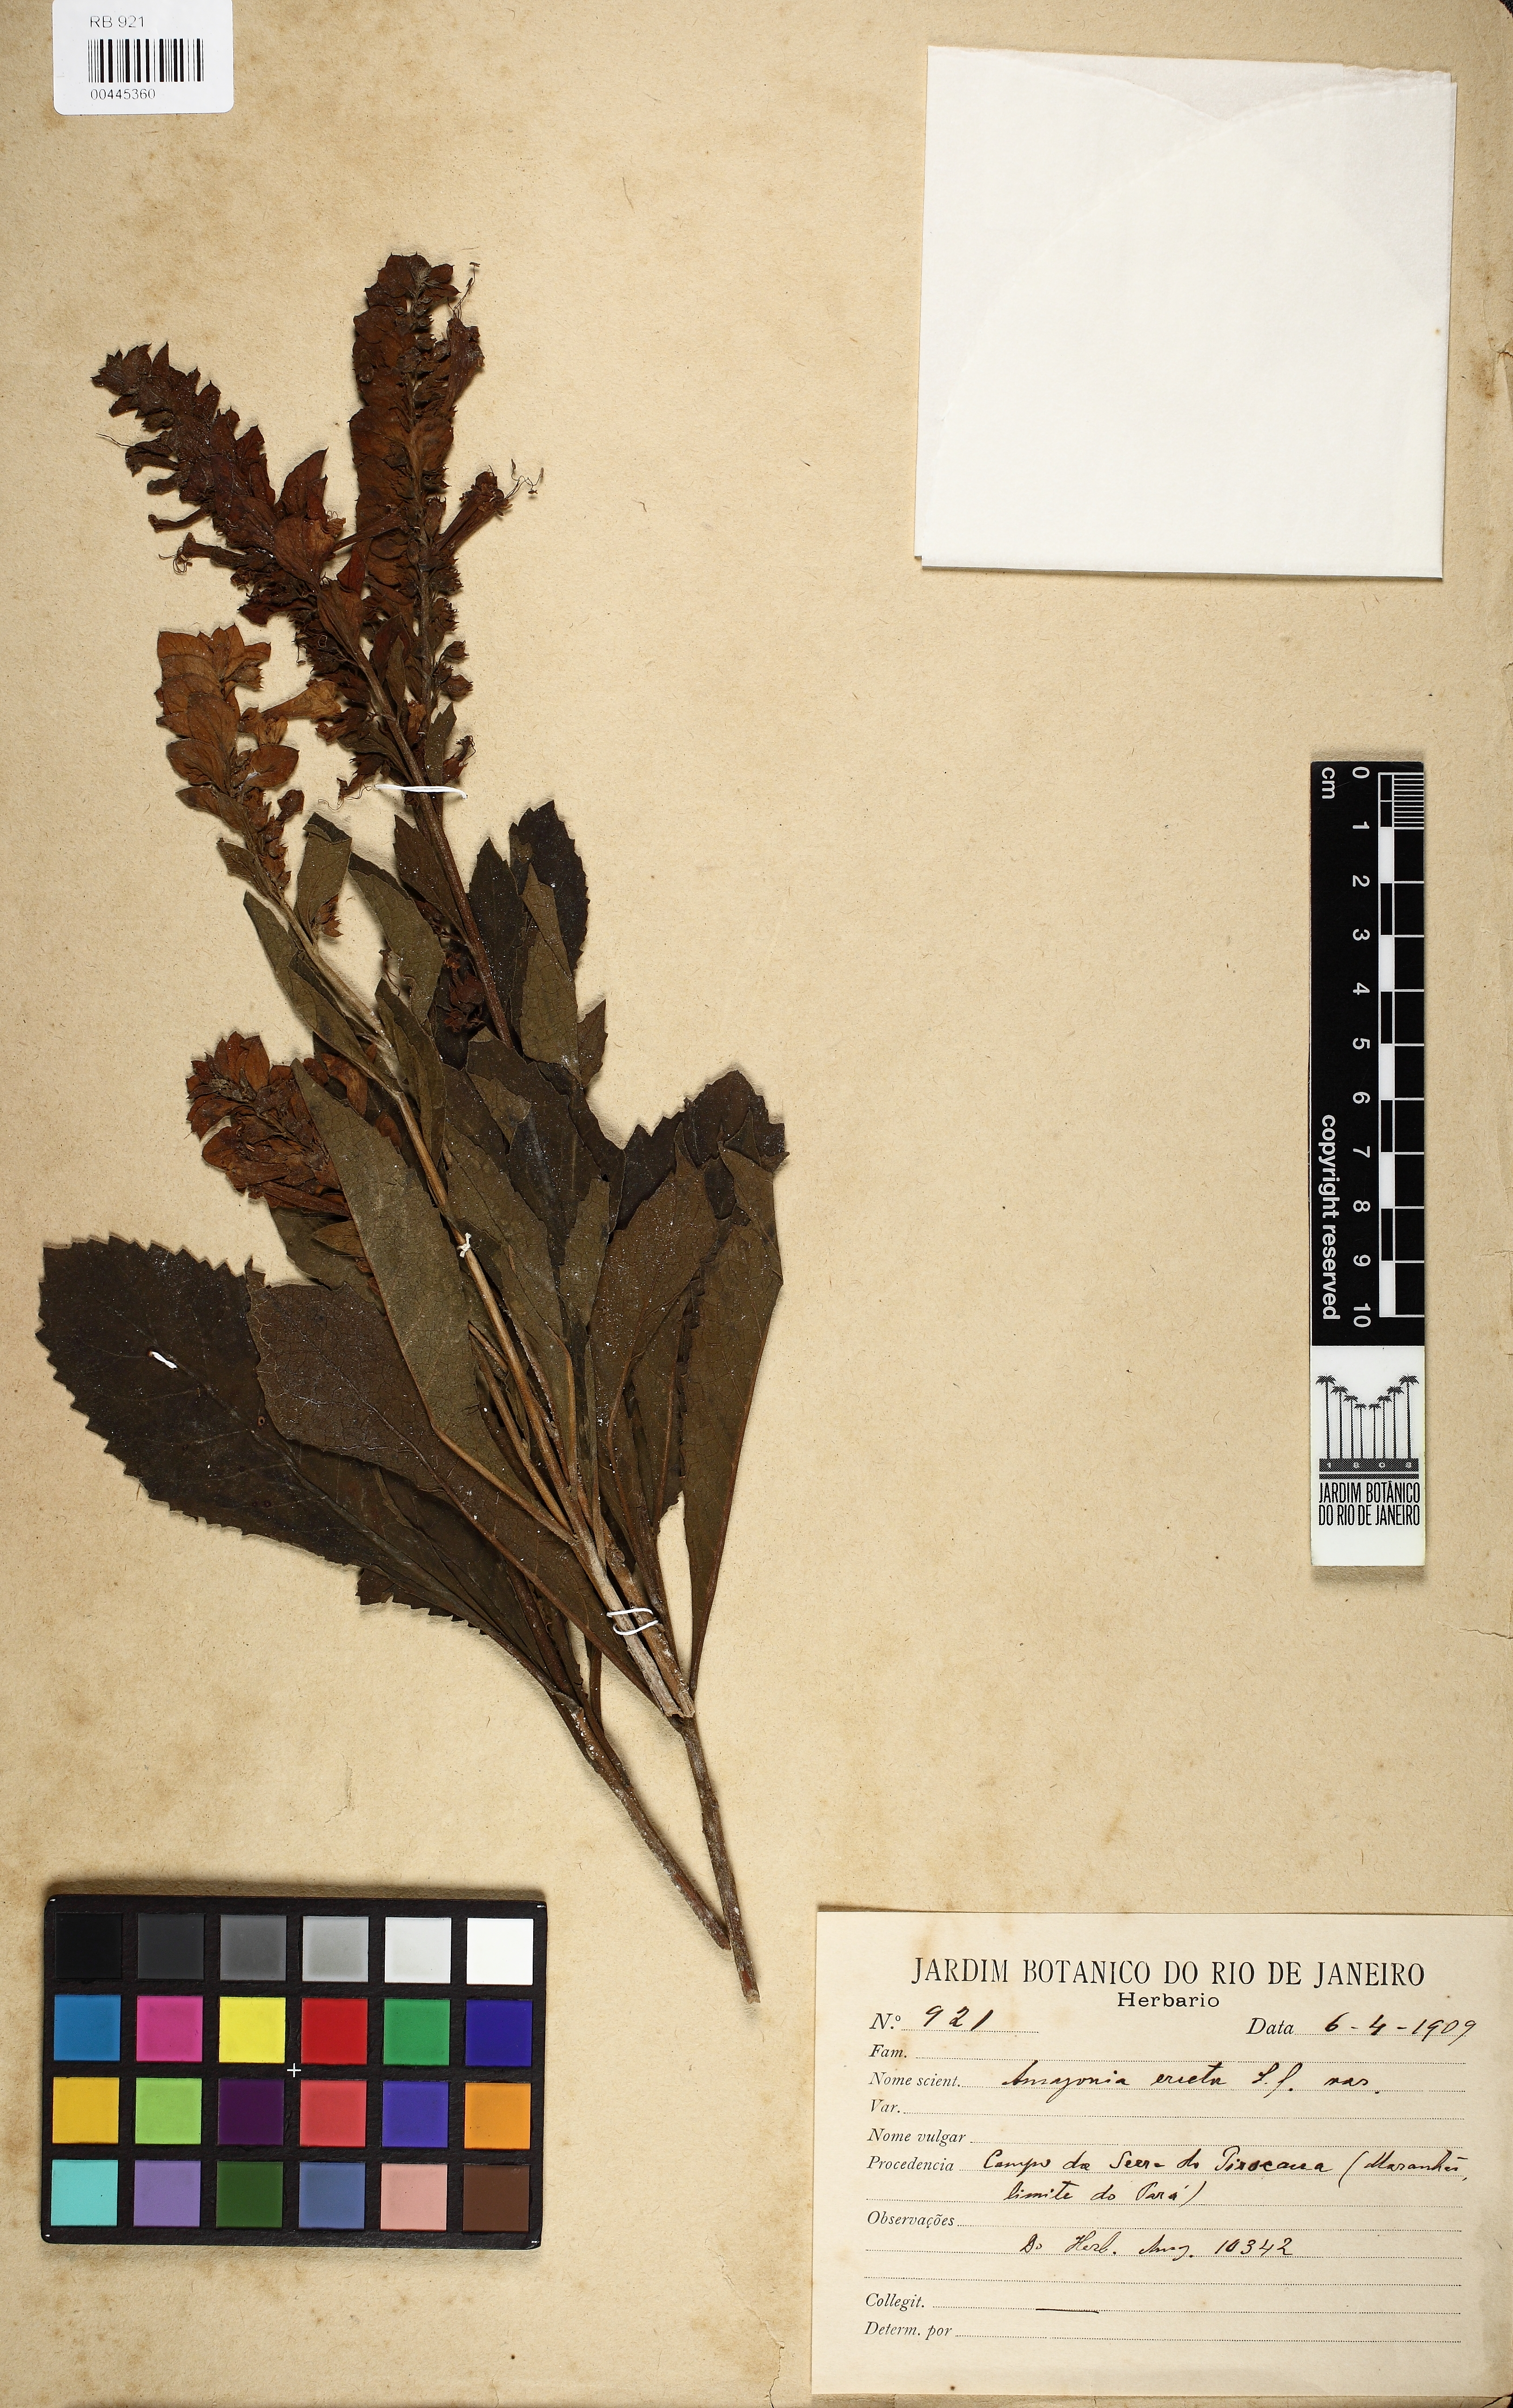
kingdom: Plantae
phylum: Tracheophyta
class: Magnoliopsida
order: Lamiales
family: Verbenaceae
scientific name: Verbenaceae
